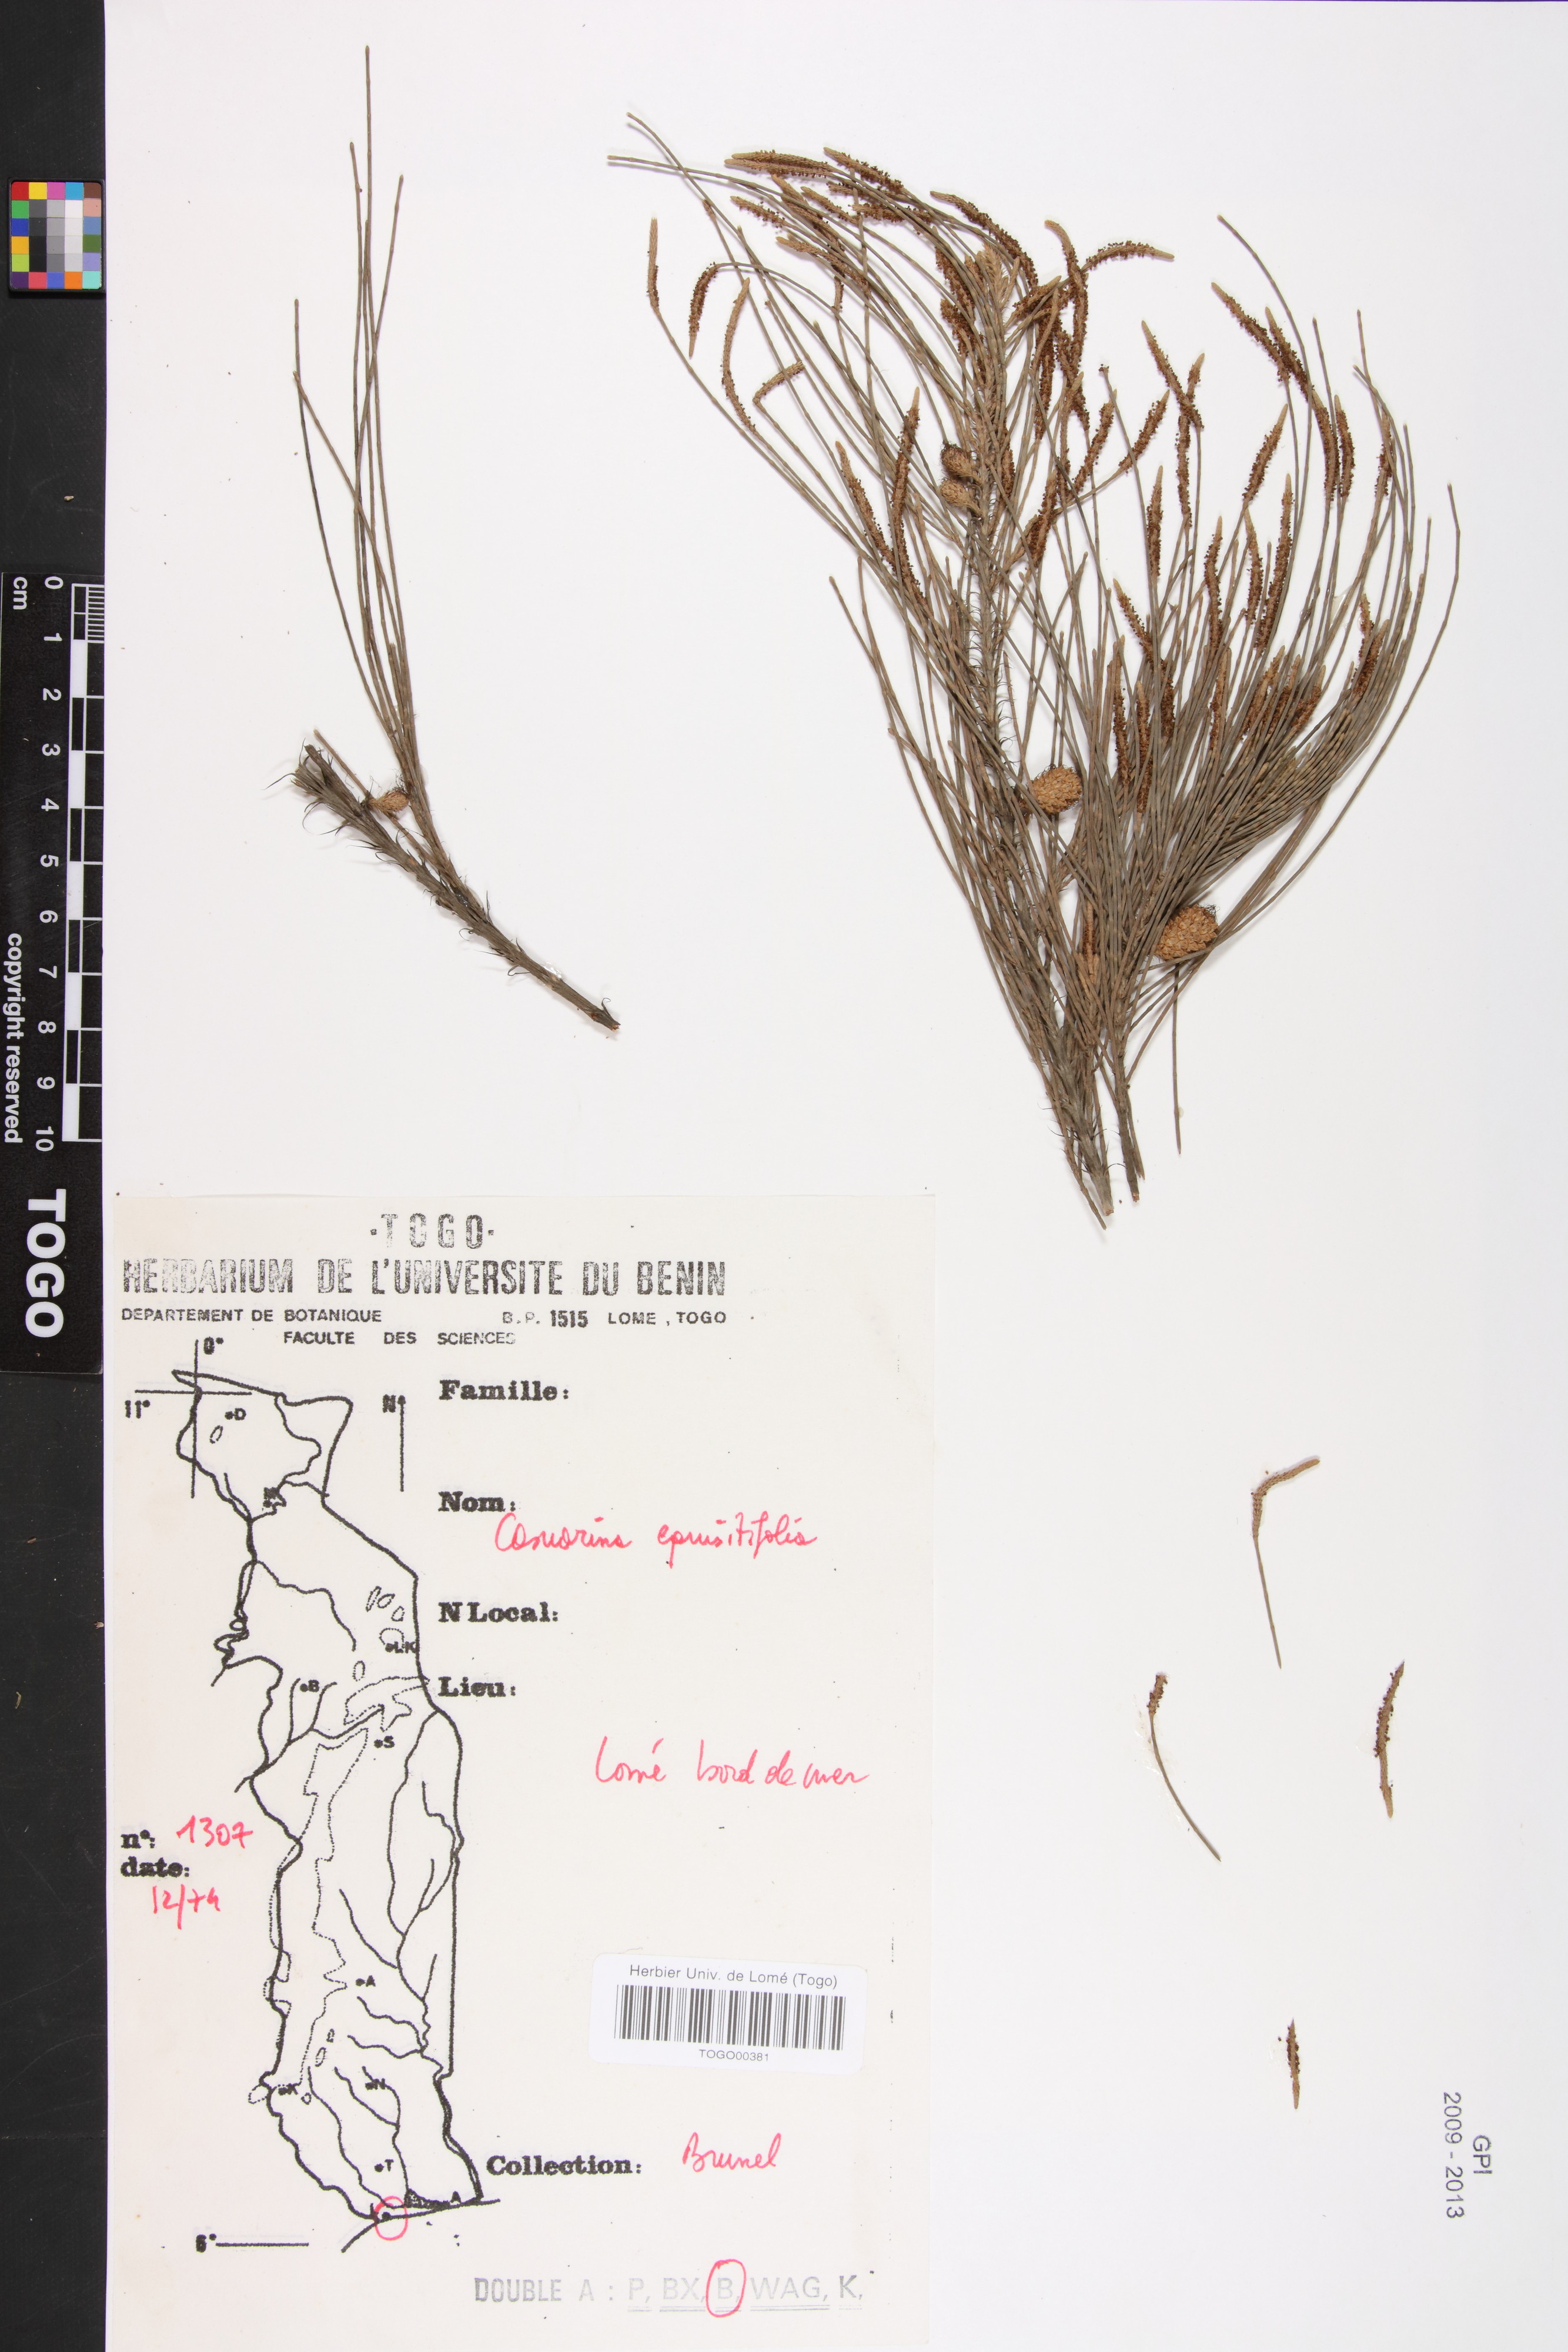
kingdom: Plantae
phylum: Tracheophyta
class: Magnoliopsida
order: Fagales
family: Casuarinaceae
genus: Casuarina
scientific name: Casuarina equisetifolia
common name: Beach sheoak
